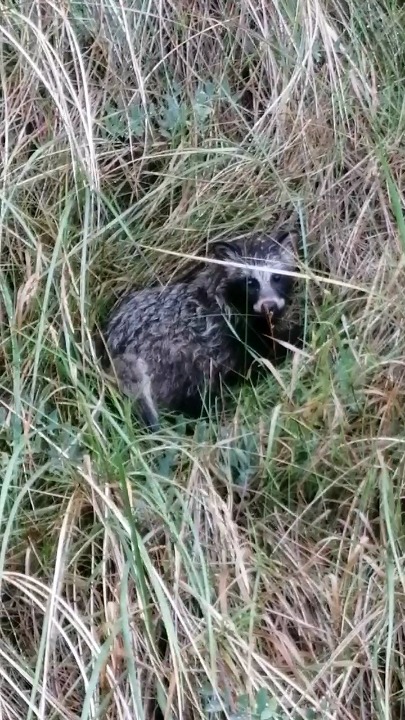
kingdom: Animalia
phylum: Chordata
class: Mammalia
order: Carnivora
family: Canidae
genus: Nyctereutes
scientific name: Nyctereutes procyonoides
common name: Mårhund
